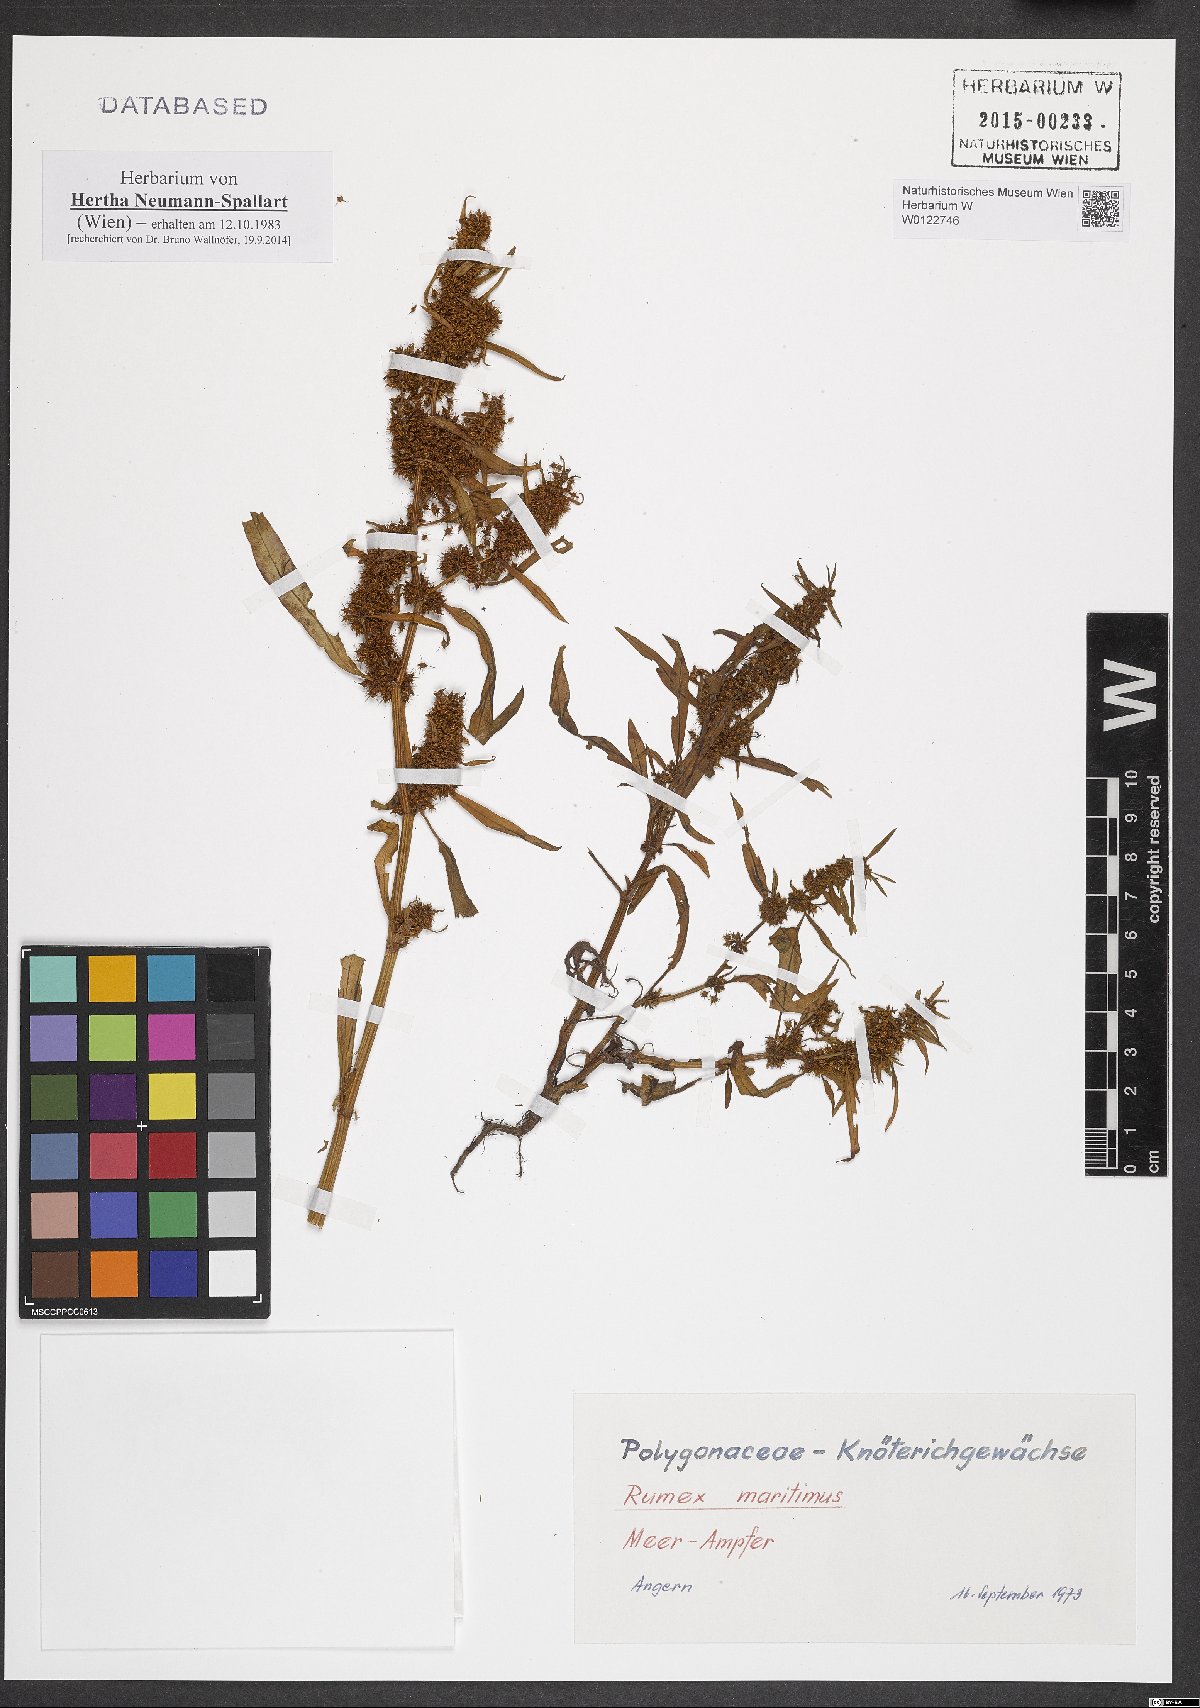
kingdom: Plantae
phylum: Tracheophyta
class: Magnoliopsida
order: Caryophyllales
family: Polygonaceae
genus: Rumex
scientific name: Rumex maritimus
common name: Golden dock
